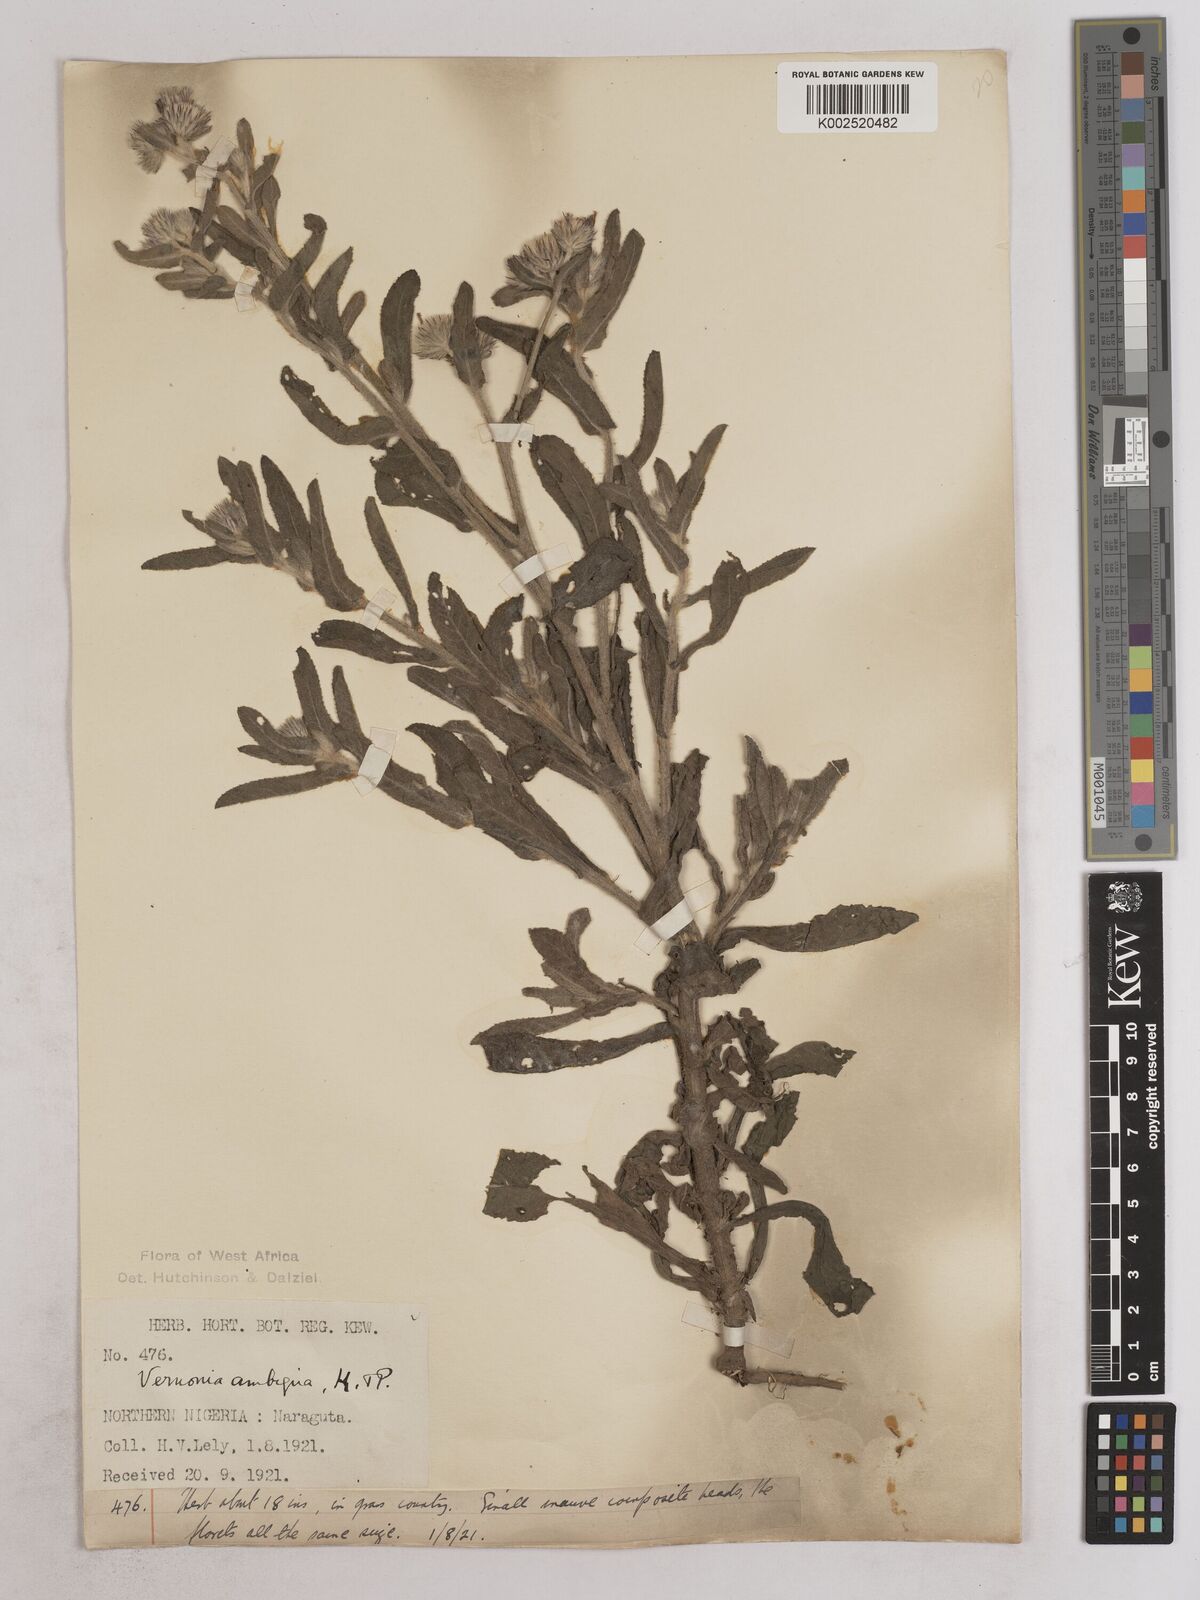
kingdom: Plantae
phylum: Tracheophyta
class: Magnoliopsida
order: Asterales
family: Asteraceae
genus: Vernoniastrum
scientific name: Vernoniastrum ambiguum
